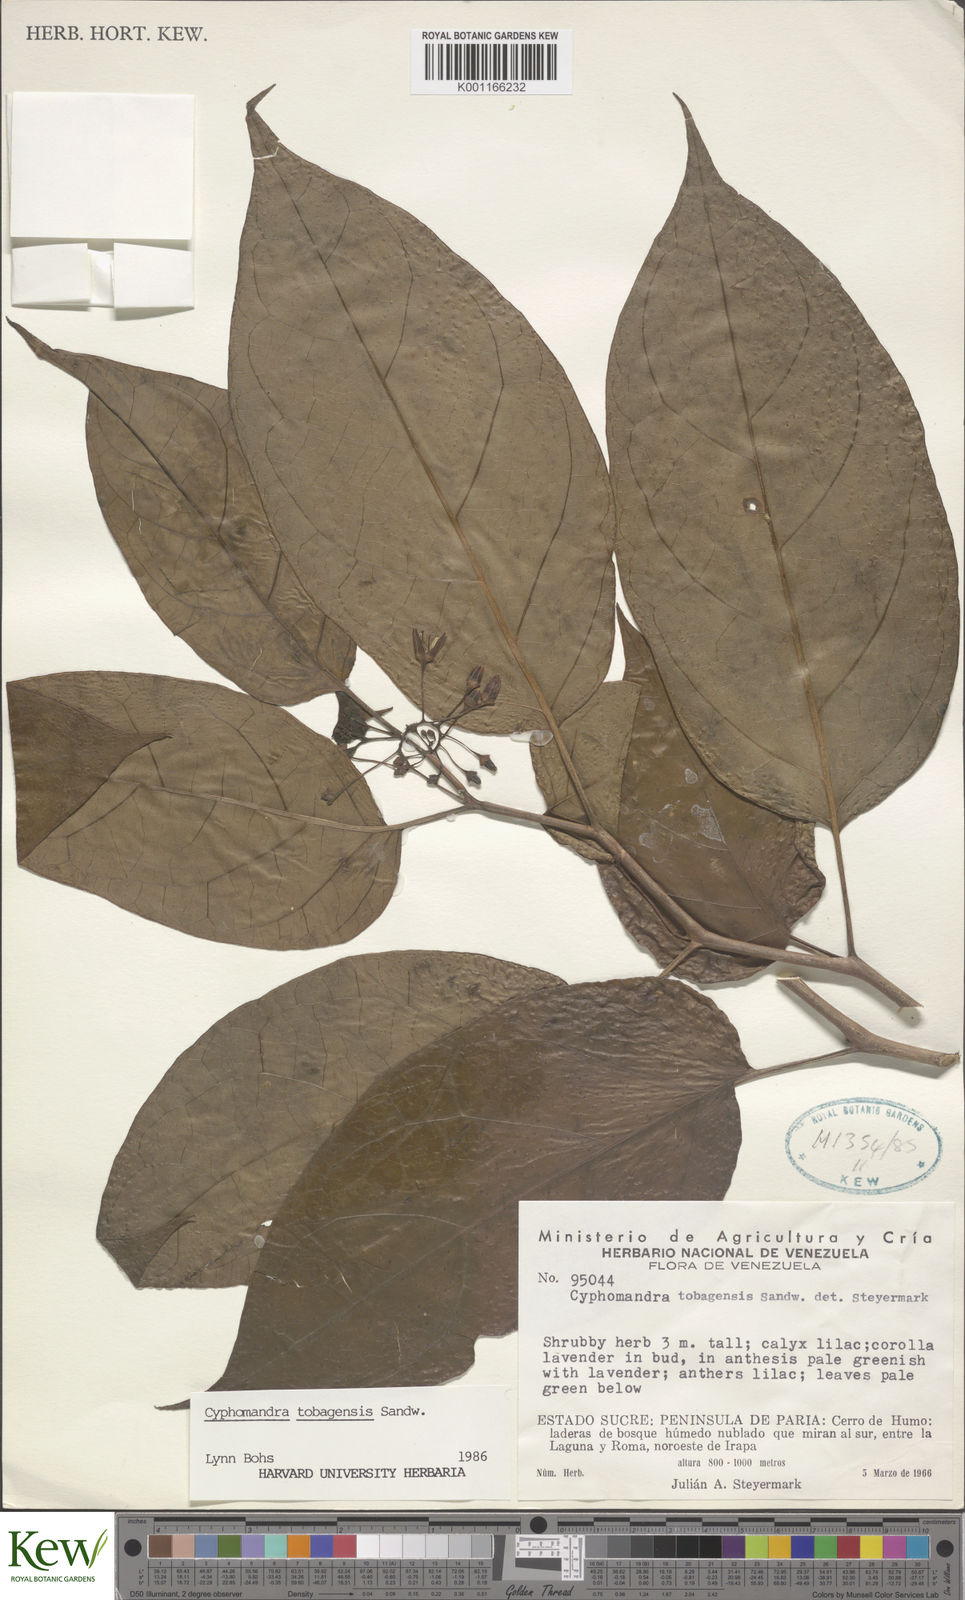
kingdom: Plantae
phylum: Tracheophyta
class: Magnoliopsida
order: Solanales
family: Solanaceae
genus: Solanum
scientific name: Solanum tobagense
